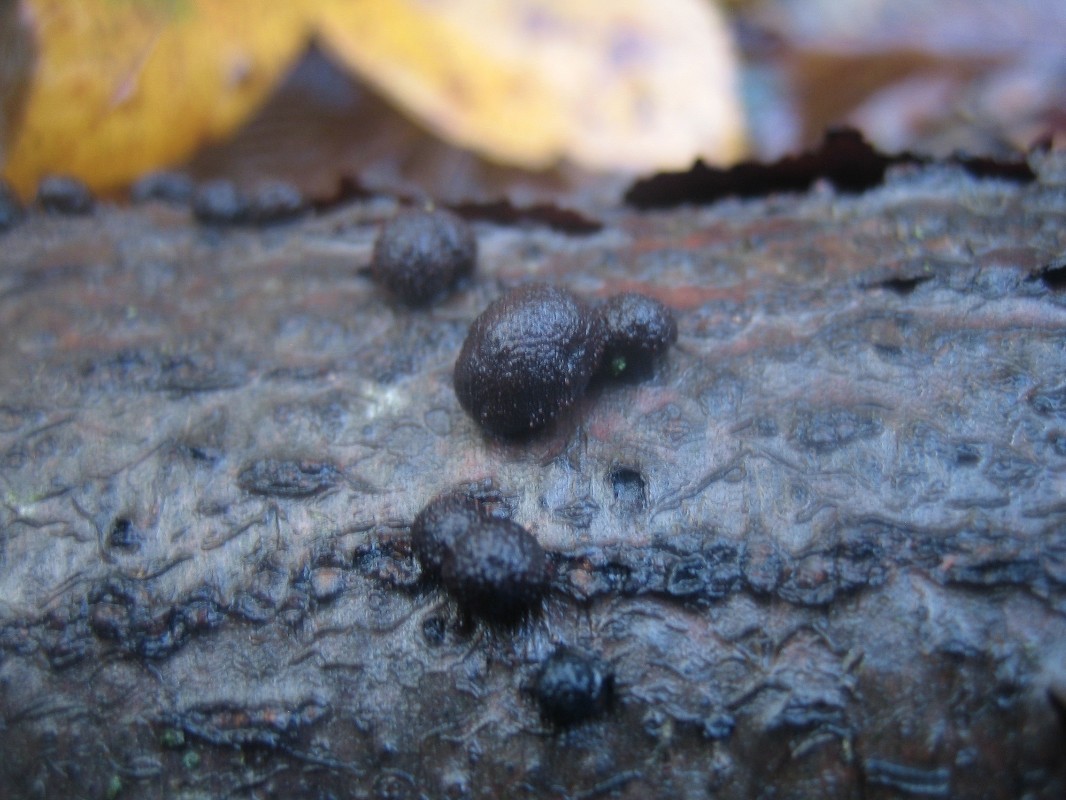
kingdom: Fungi
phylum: Ascomycota
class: Sordariomycetes
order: Xylariales
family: Hypoxylaceae
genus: Hypoxylon
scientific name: Hypoxylon fragiforme
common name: kuljordbær
